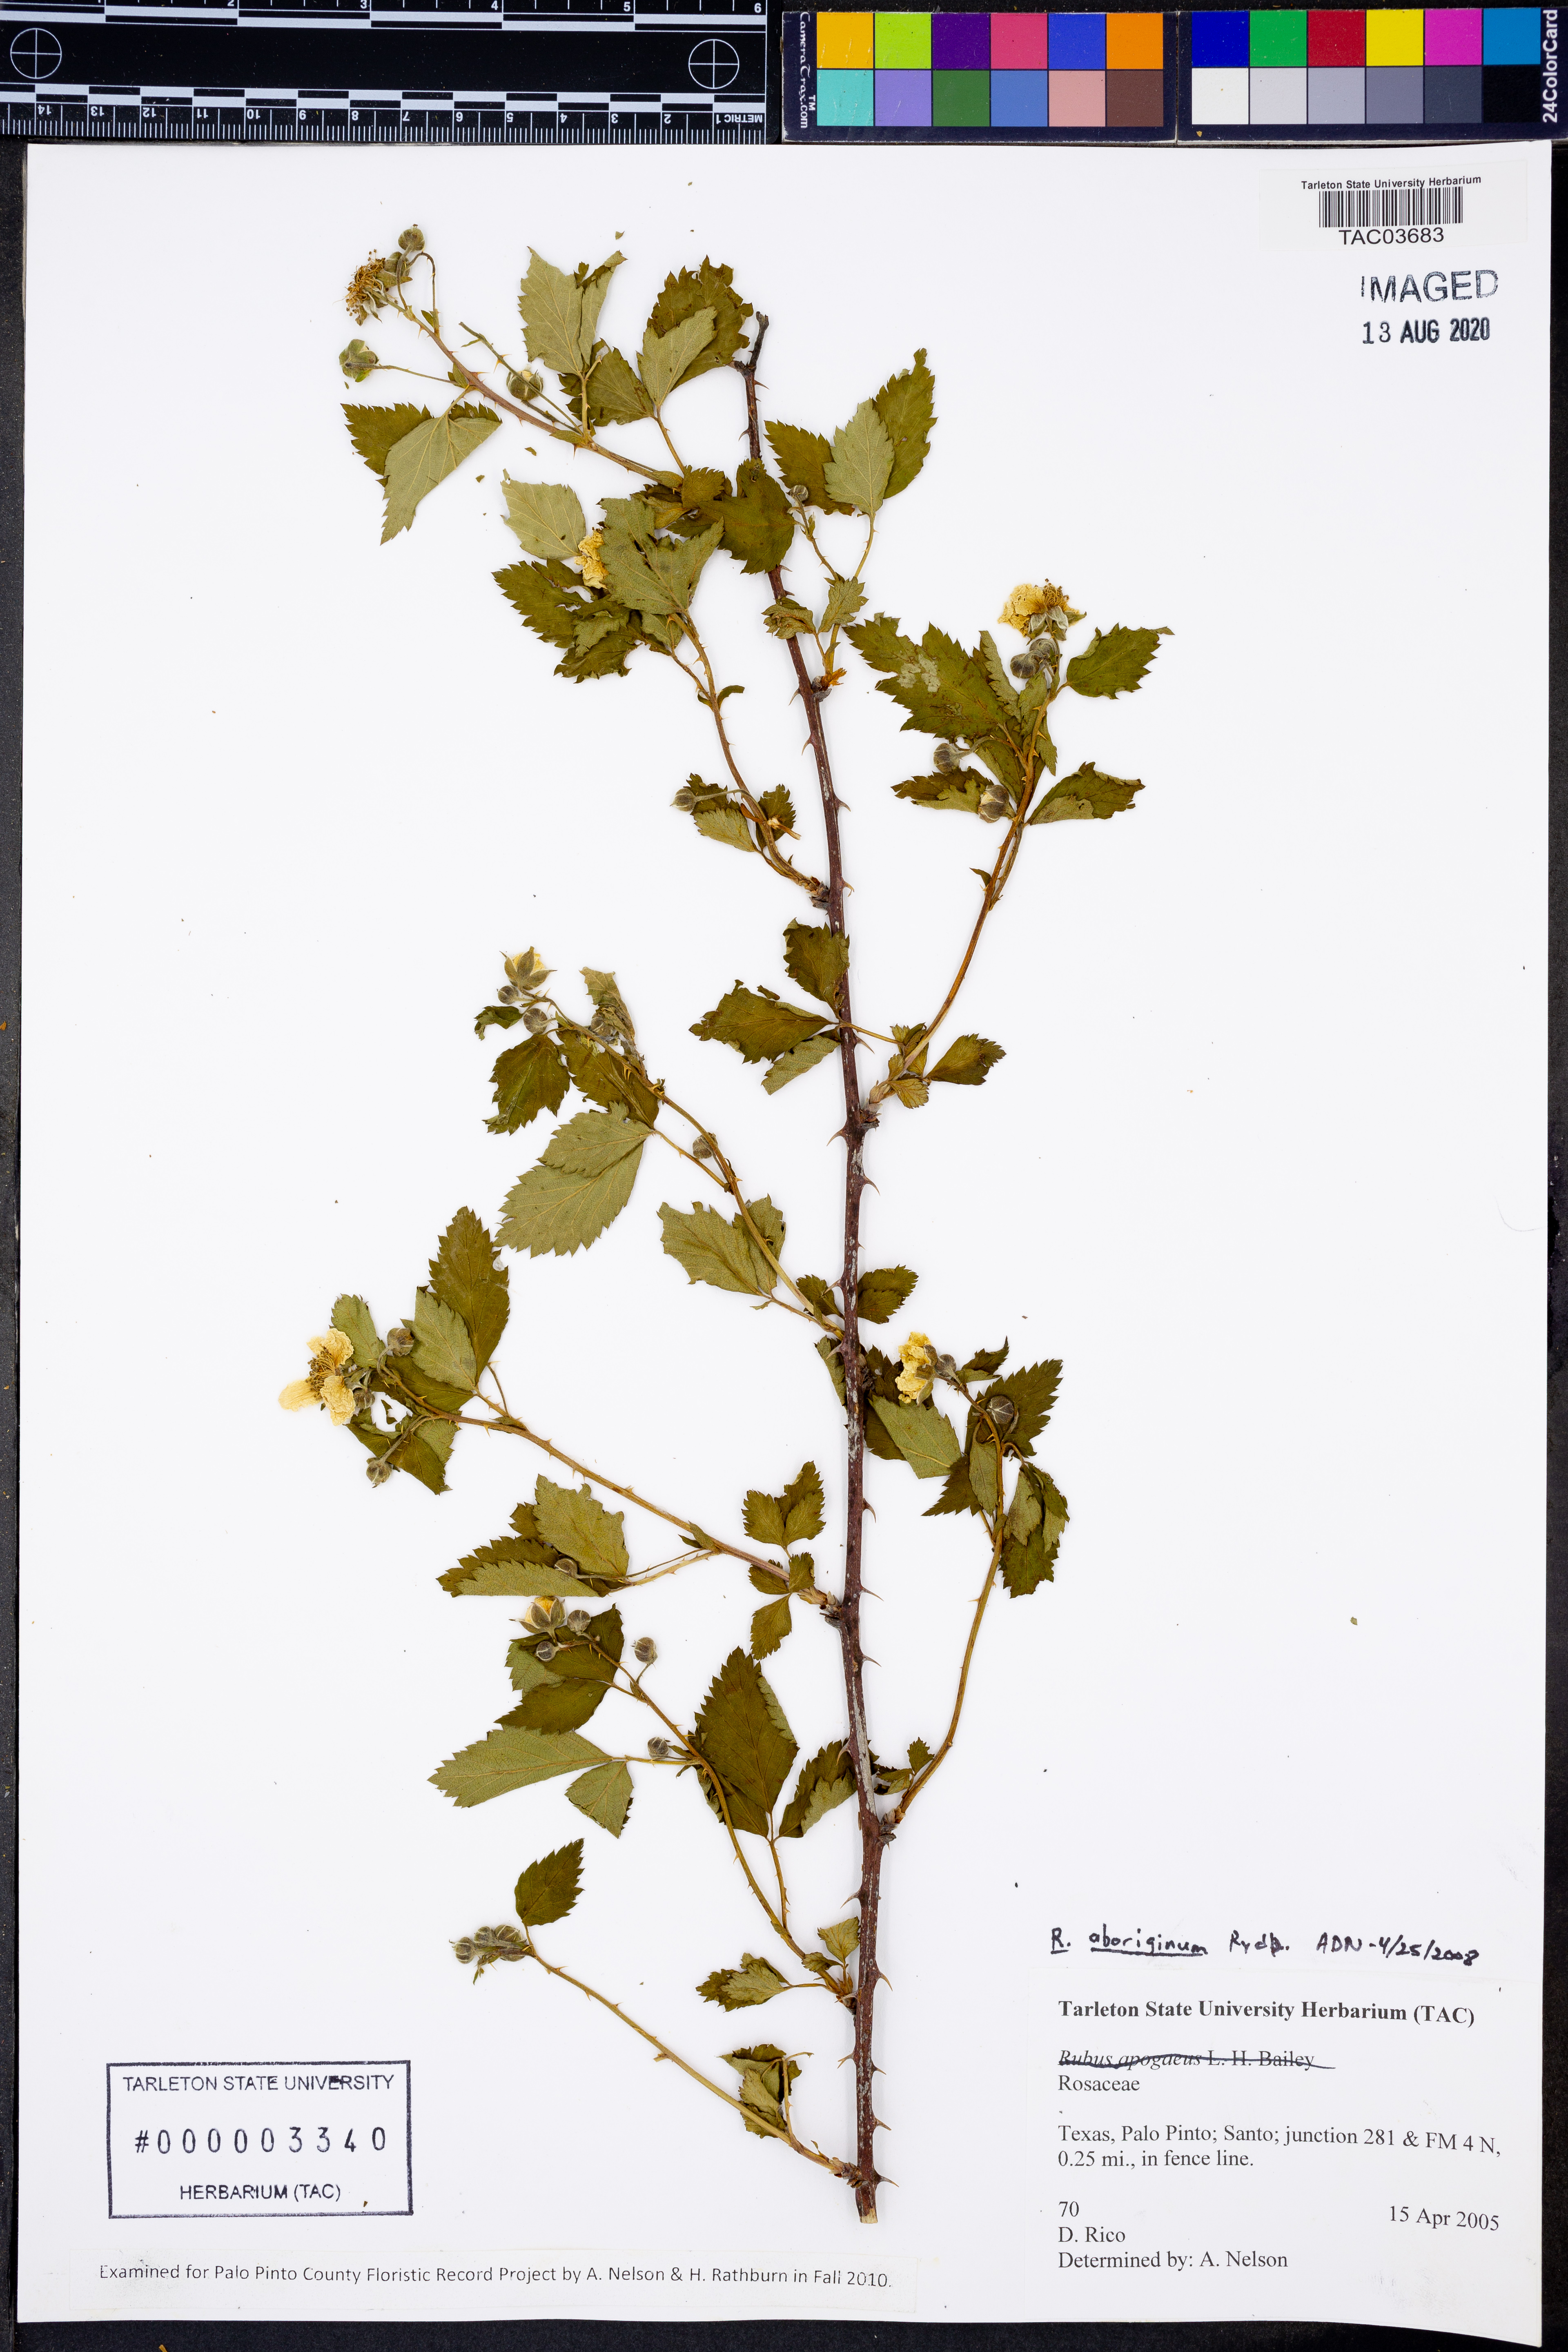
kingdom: Plantae
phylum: Tracheophyta
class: Magnoliopsida
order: Rosales
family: Rosaceae
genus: Rubus
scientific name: Rubus aboriginum
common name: Mayes dewberry
